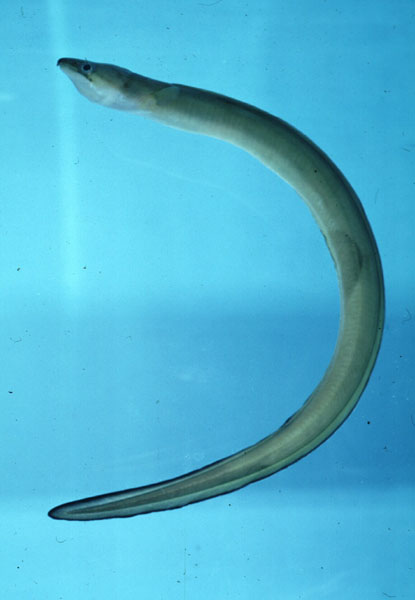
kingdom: Animalia
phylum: Chordata
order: Anguilliformes
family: Congridae
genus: Conger
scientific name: Conger cinereus
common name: Moustache conger
